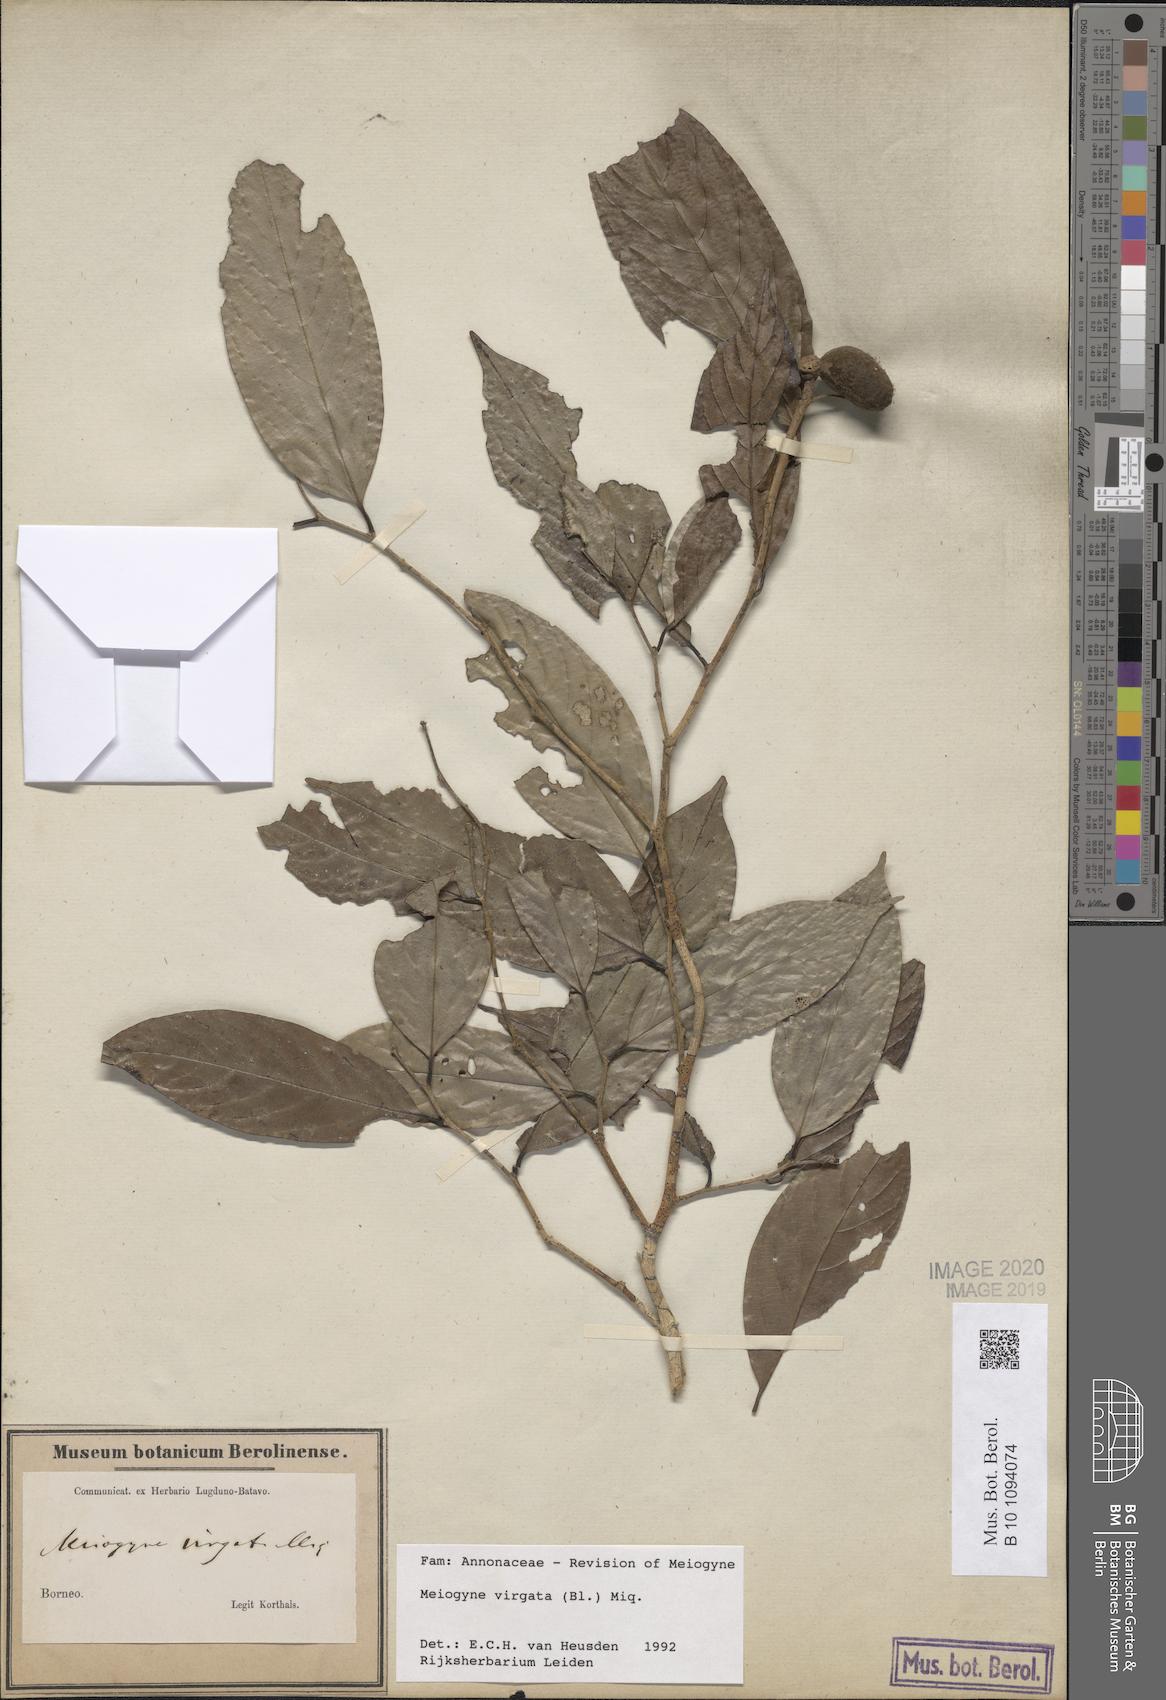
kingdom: Plantae
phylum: Tracheophyta
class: Magnoliopsida
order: Magnoliales
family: Annonaceae
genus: Meiogyne
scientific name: Meiogyne virgata
